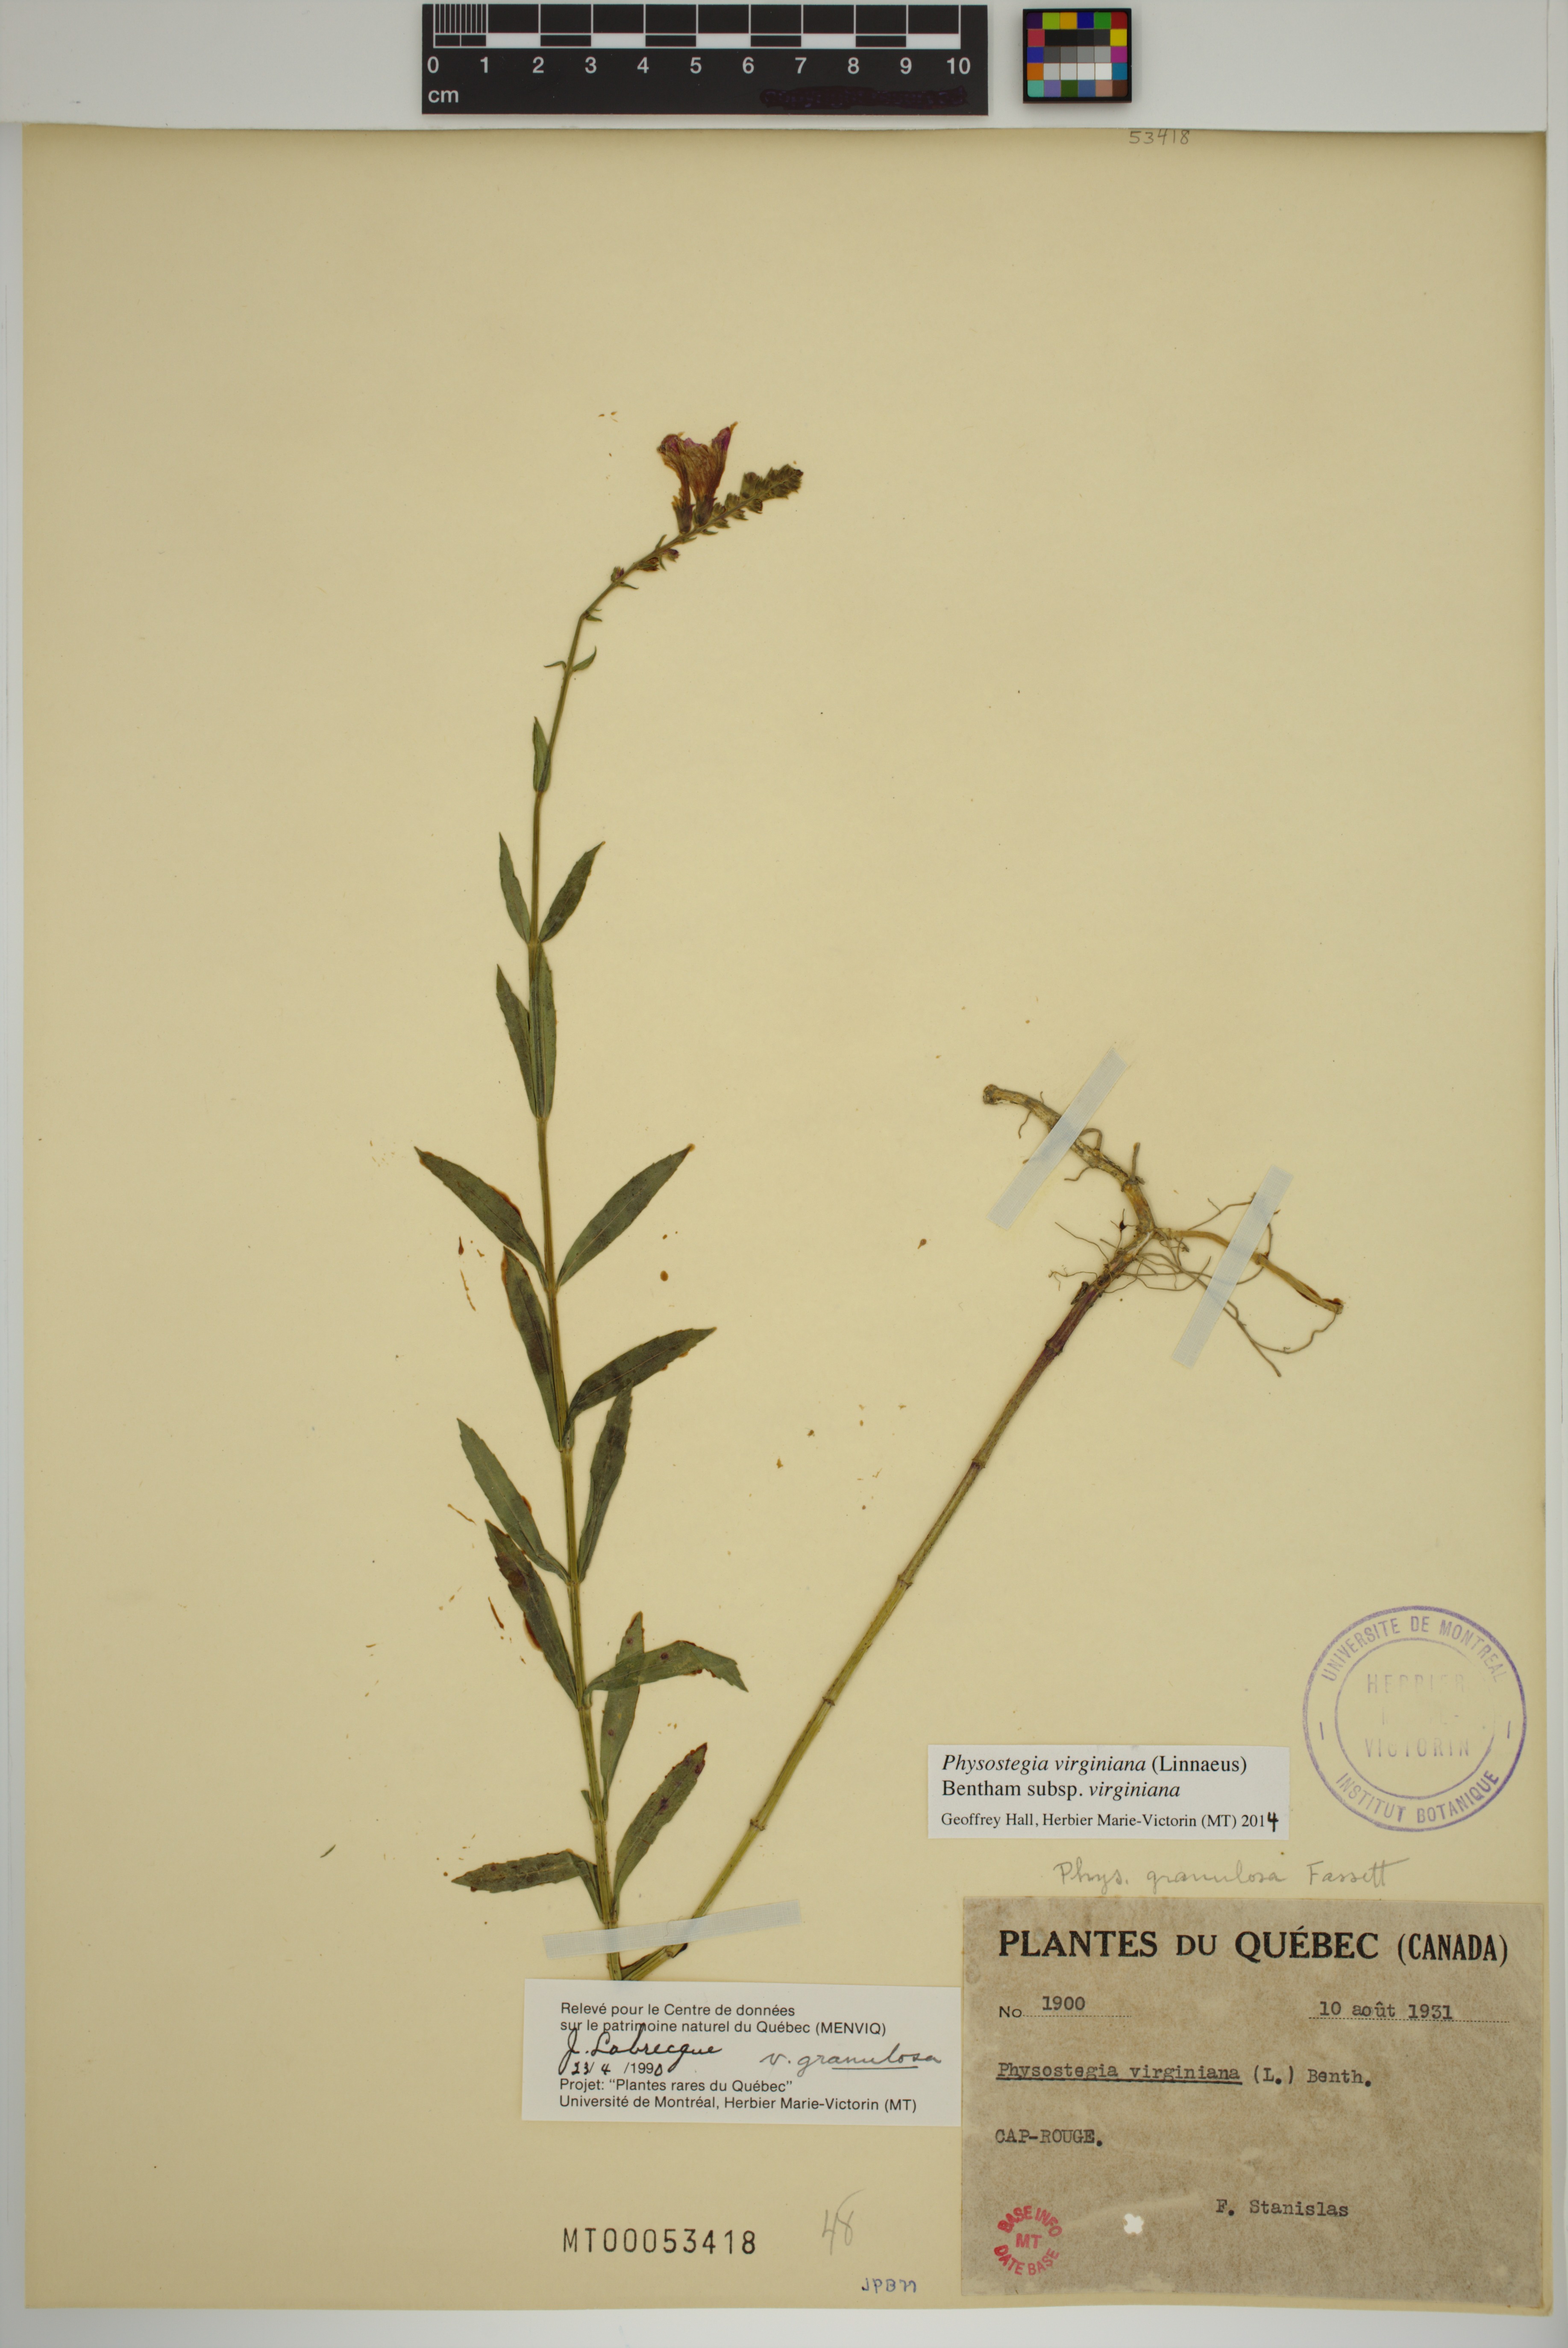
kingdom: Plantae
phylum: Tracheophyta
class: Magnoliopsida
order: Lamiales
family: Lamiaceae
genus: Physostegia
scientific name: Physostegia virginiana
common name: Obedient-plant
